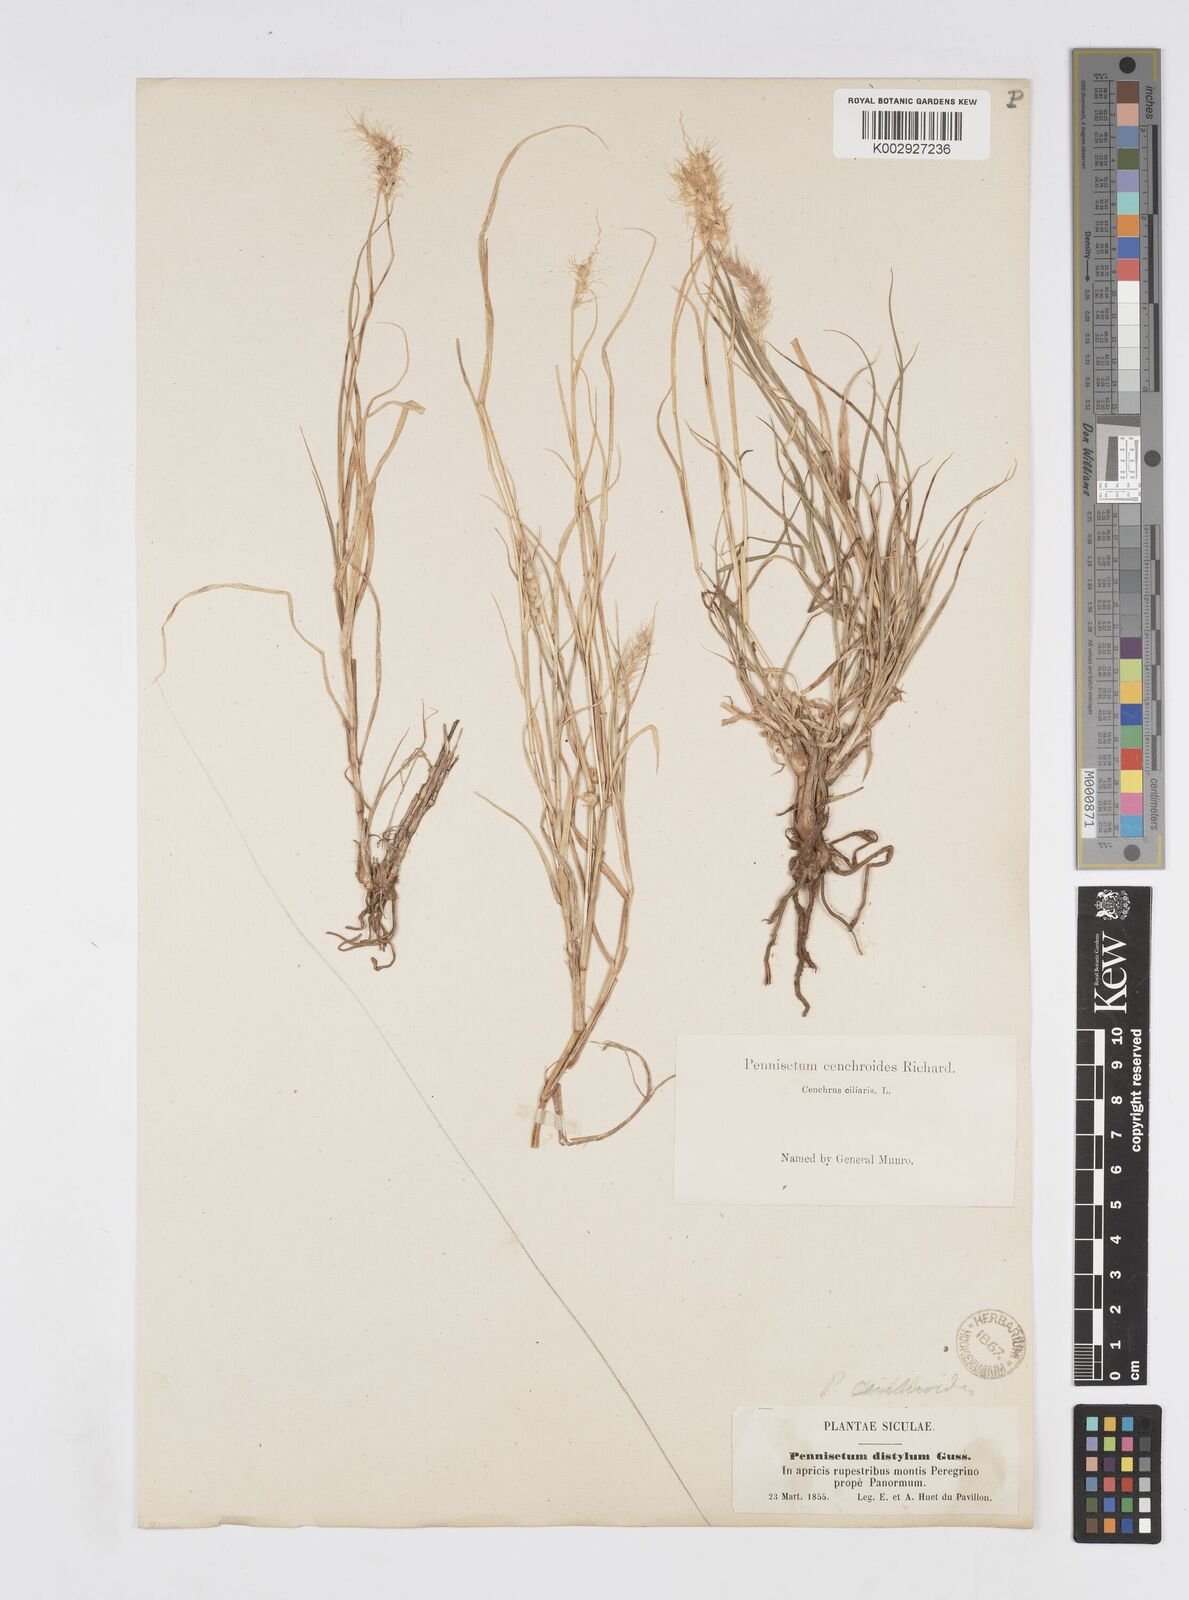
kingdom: Plantae
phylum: Tracheophyta
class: Liliopsida
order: Poales
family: Poaceae
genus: Cenchrus
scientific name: Cenchrus ciliaris
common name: Buffelgrass
